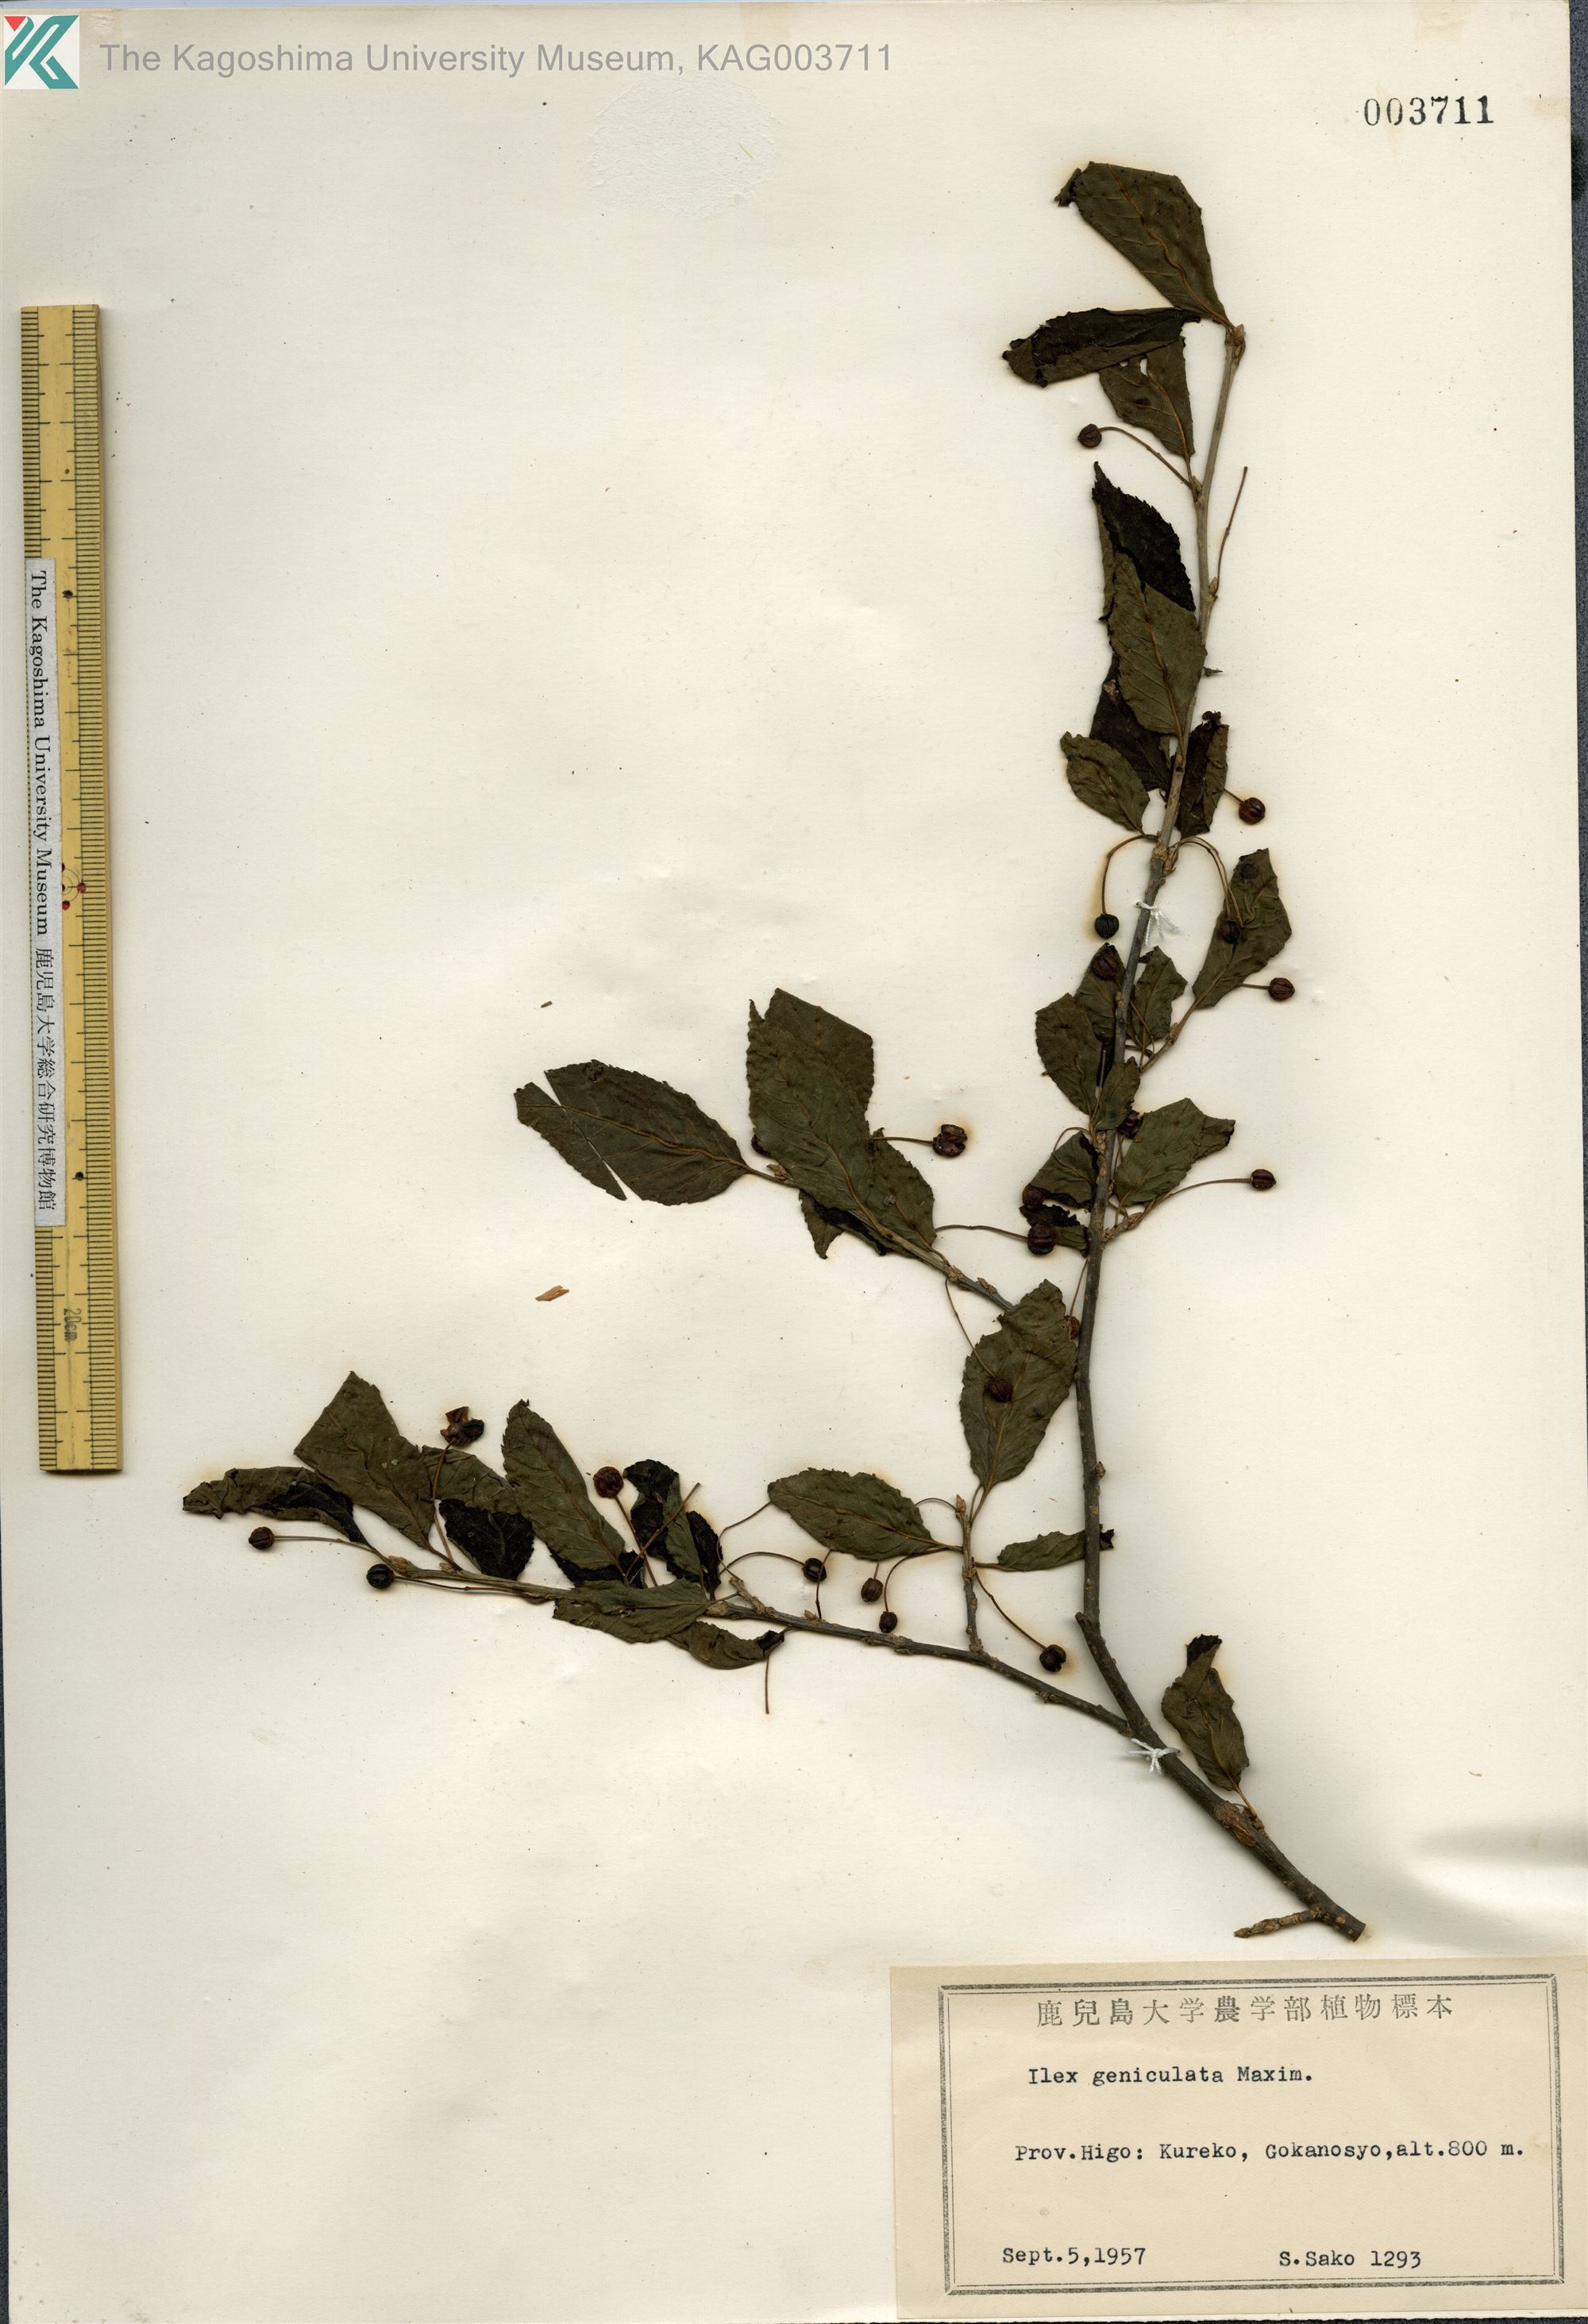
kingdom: Plantae
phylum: Tracheophyta
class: Magnoliopsida
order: Aquifoliales
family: Aquifoliaceae
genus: Ilex
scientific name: Ilex geniculata
